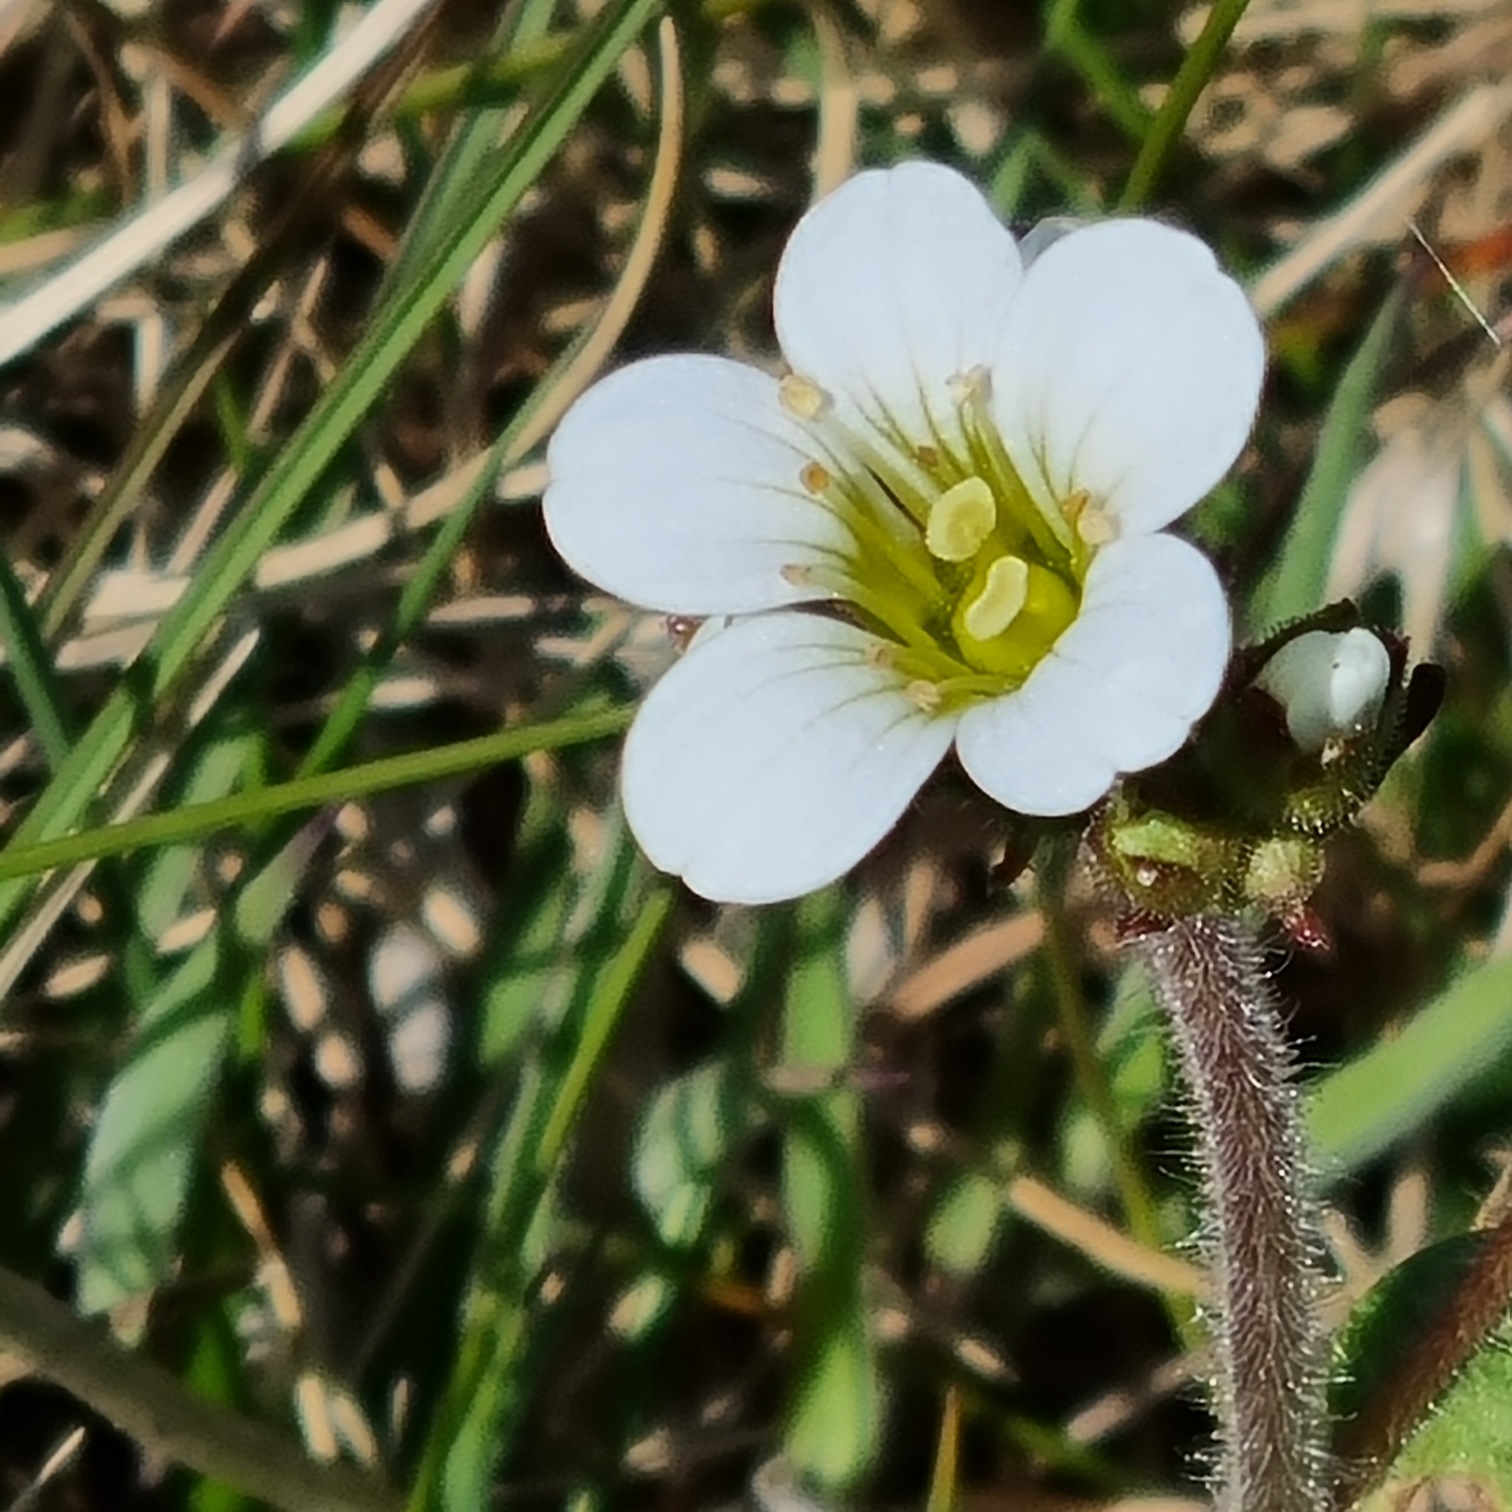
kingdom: Plantae
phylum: Tracheophyta
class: Magnoliopsida
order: Saxifragales
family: Saxifragaceae
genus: Saxifraga
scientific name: Saxifraga granulata
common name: Kornet stenbræk
